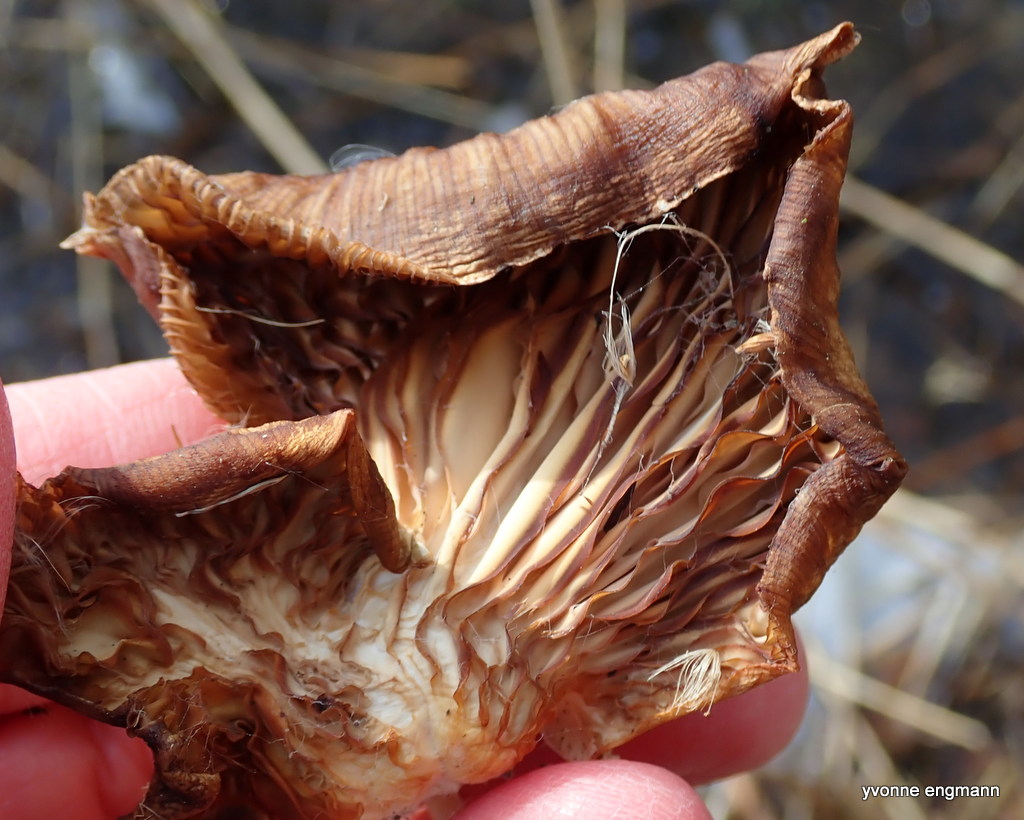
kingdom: Fungi
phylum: Basidiomycota
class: Agaricomycetes
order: Agaricales
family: Pleurotaceae
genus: Pleurotus
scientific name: Pleurotus ostreatus
